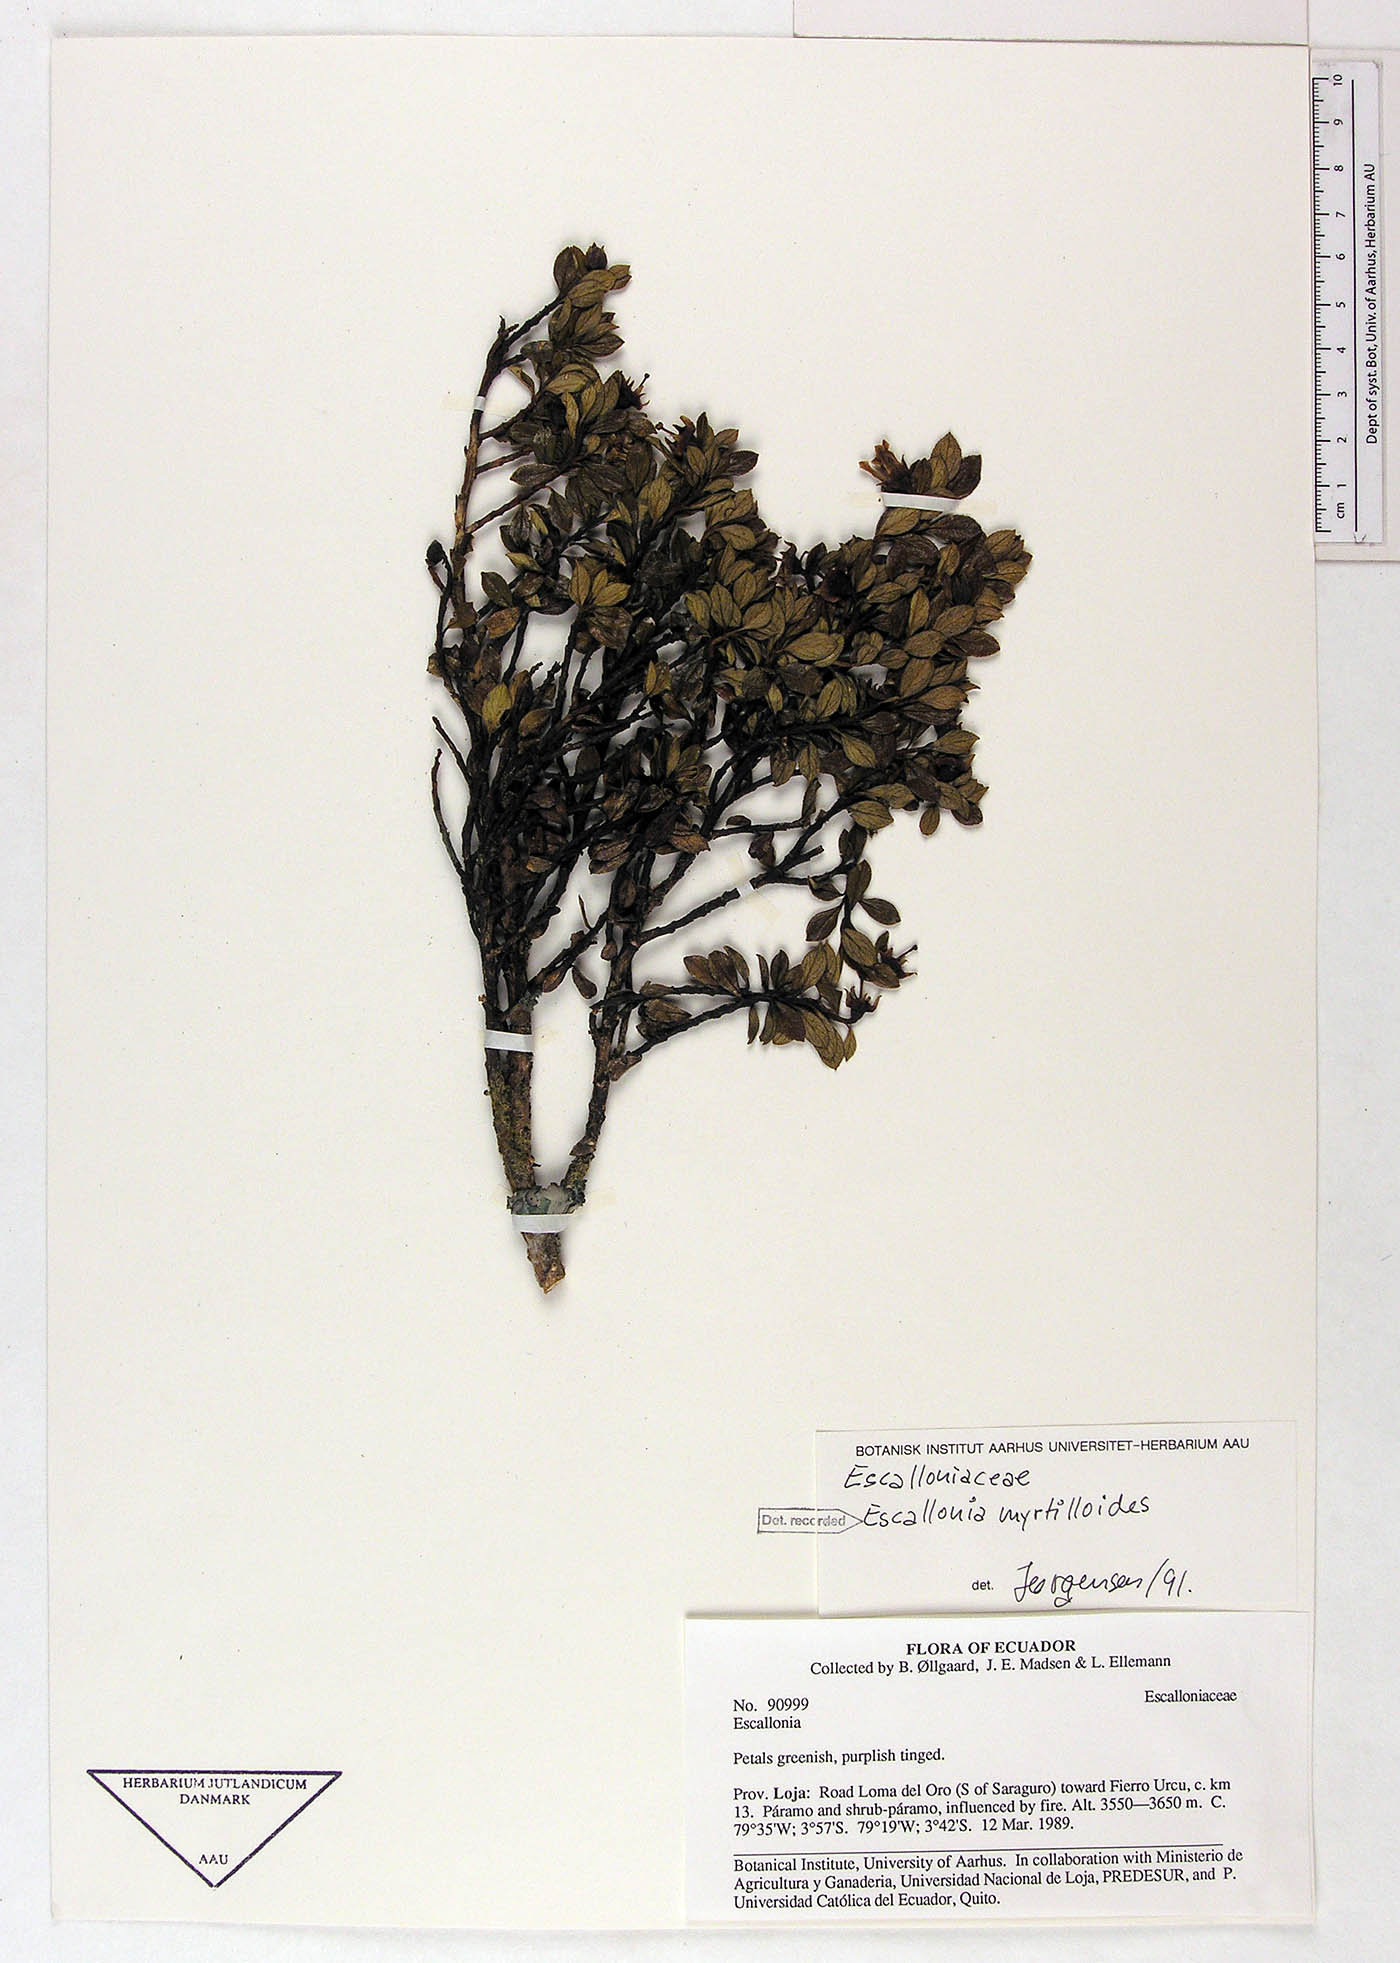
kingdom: Plantae
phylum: Tracheophyta
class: Magnoliopsida
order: Escalloniales
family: Escalloniaceae
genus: Escallonia
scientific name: Escallonia myrtilloides
